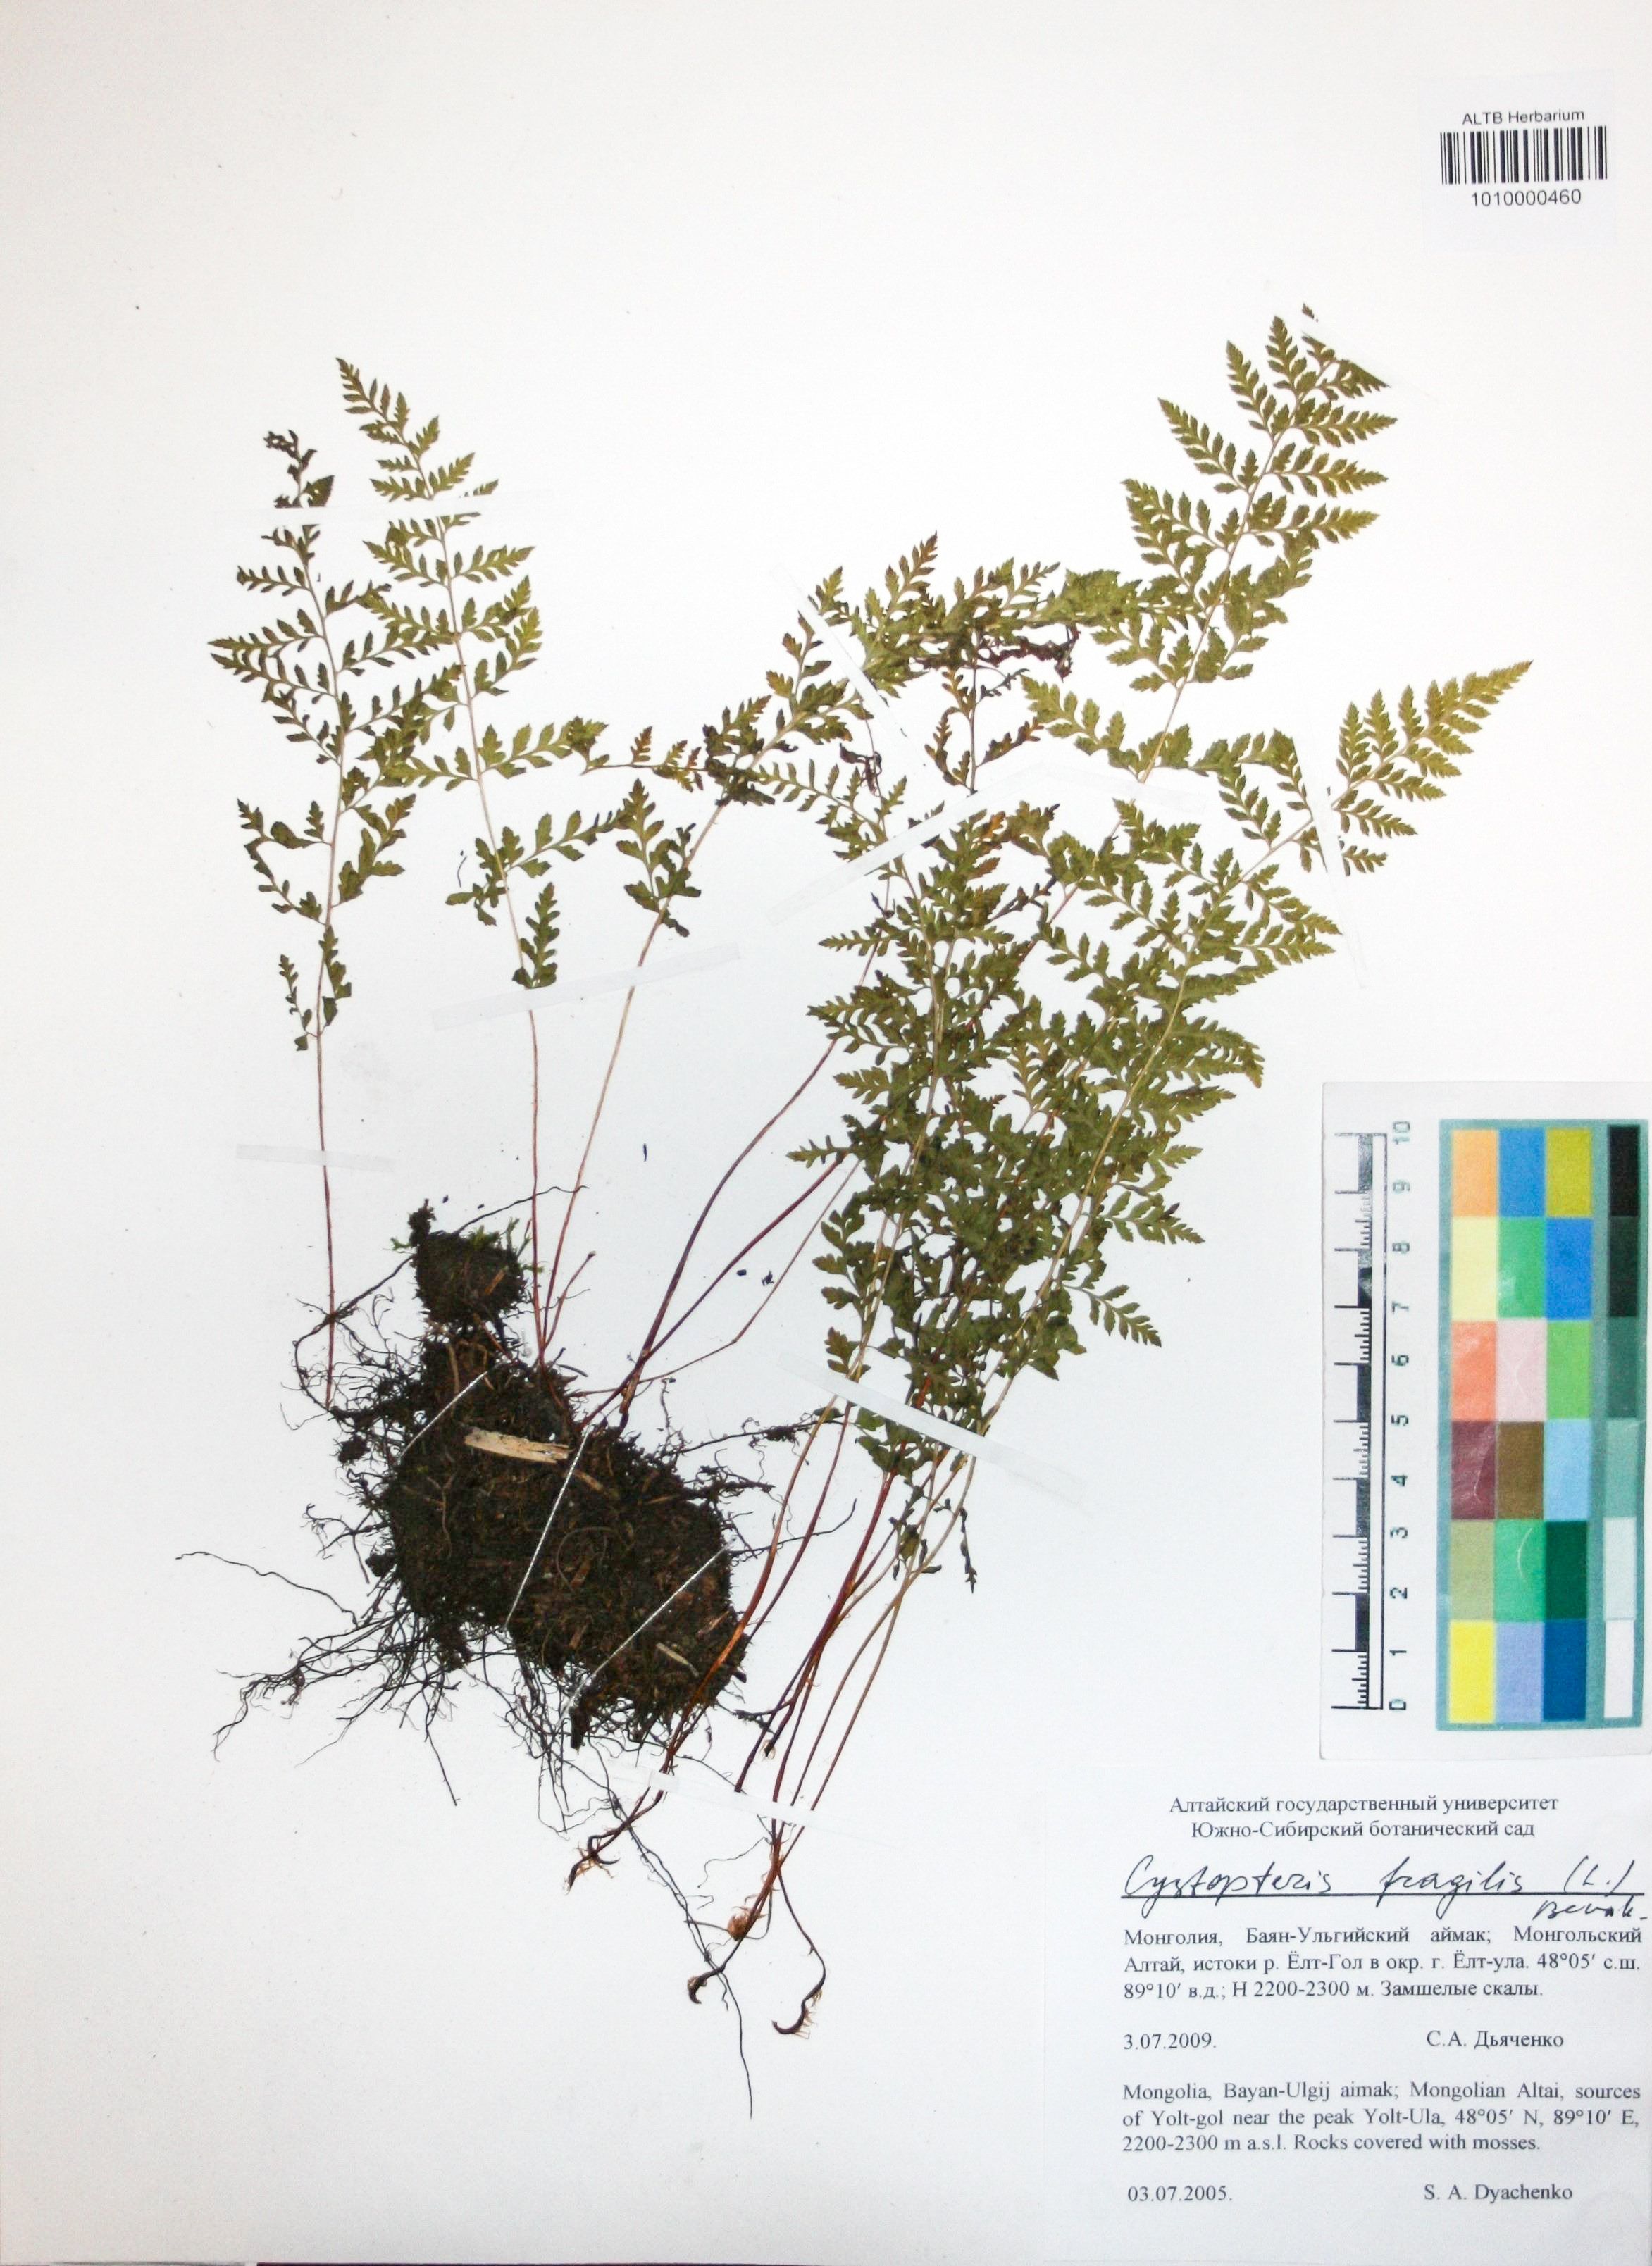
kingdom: Plantae
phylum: Tracheophyta
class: Polypodiopsida
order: Polypodiales
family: Cystopteridaceae
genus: Cystopteris
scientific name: Cystopteris fragilis
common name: Brittle bladder fern
